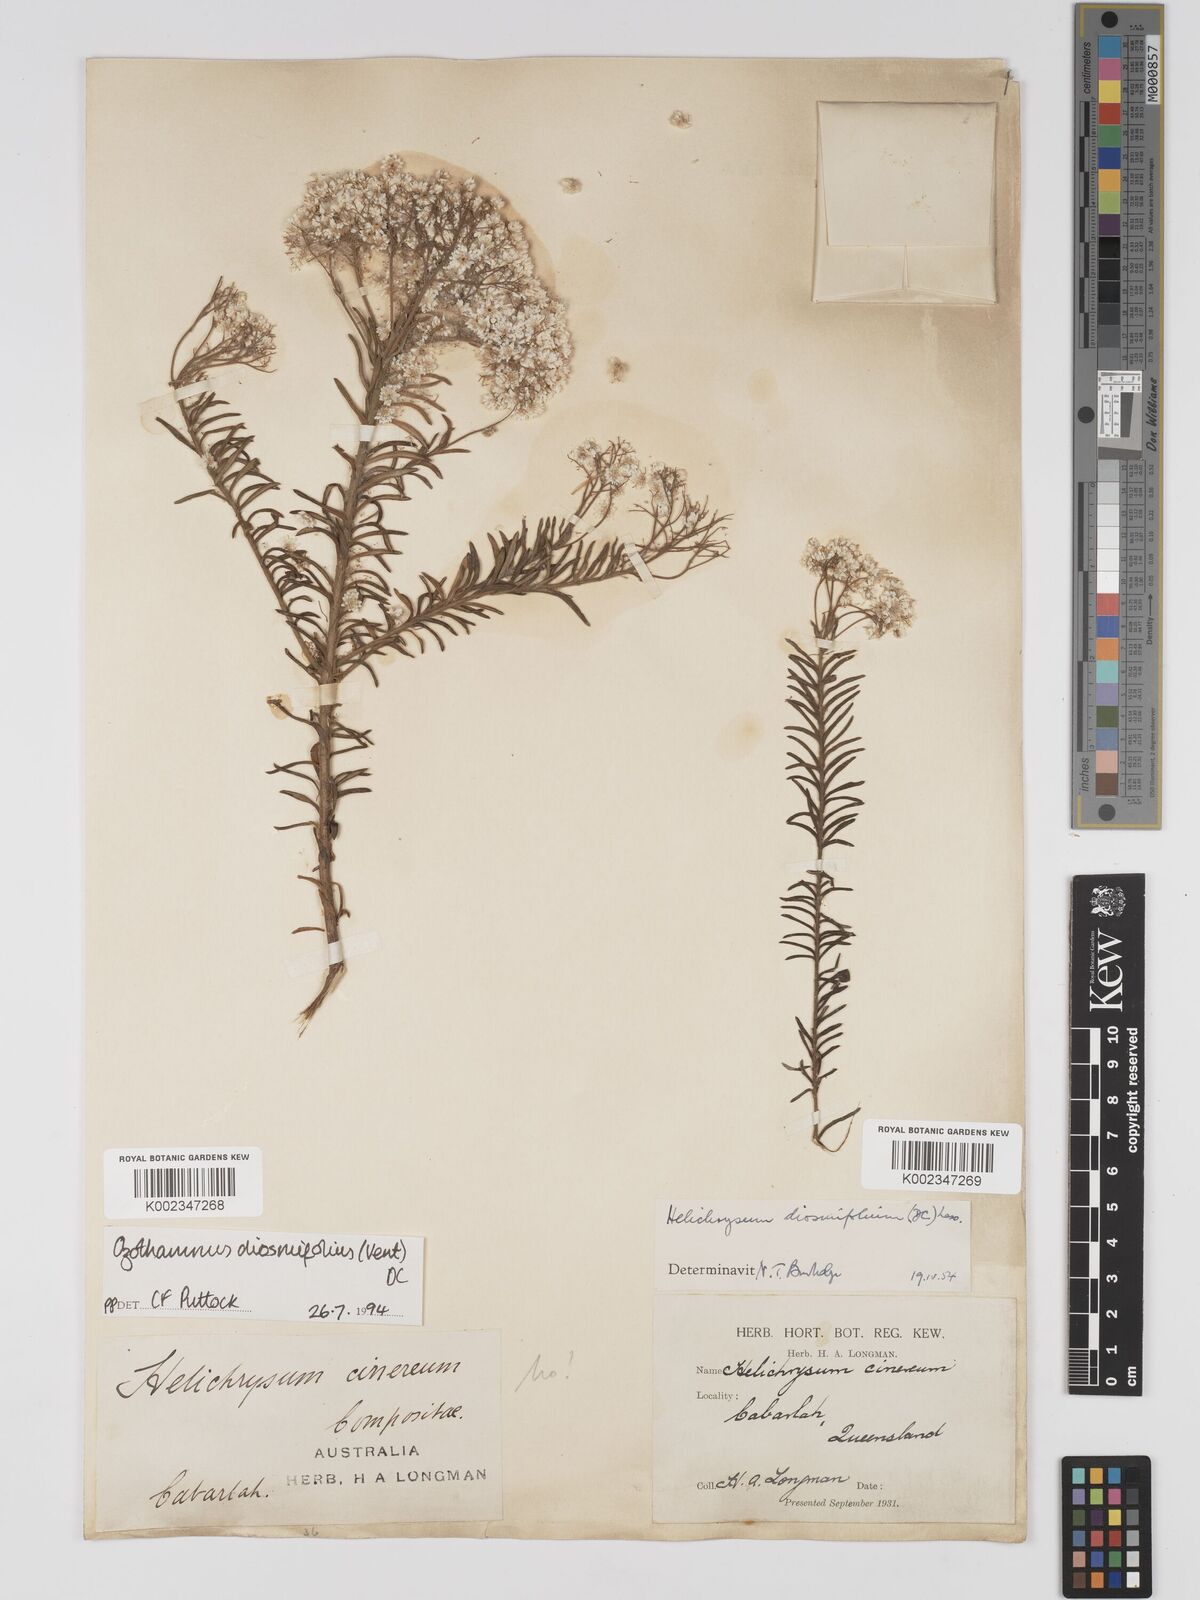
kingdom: Plantae
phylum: Tracheophyta
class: Magnoliopsida
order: Asterales
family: Asteraceae
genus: Ozothamnus
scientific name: Ozothamnus diosmifolius
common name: White-dogwood
